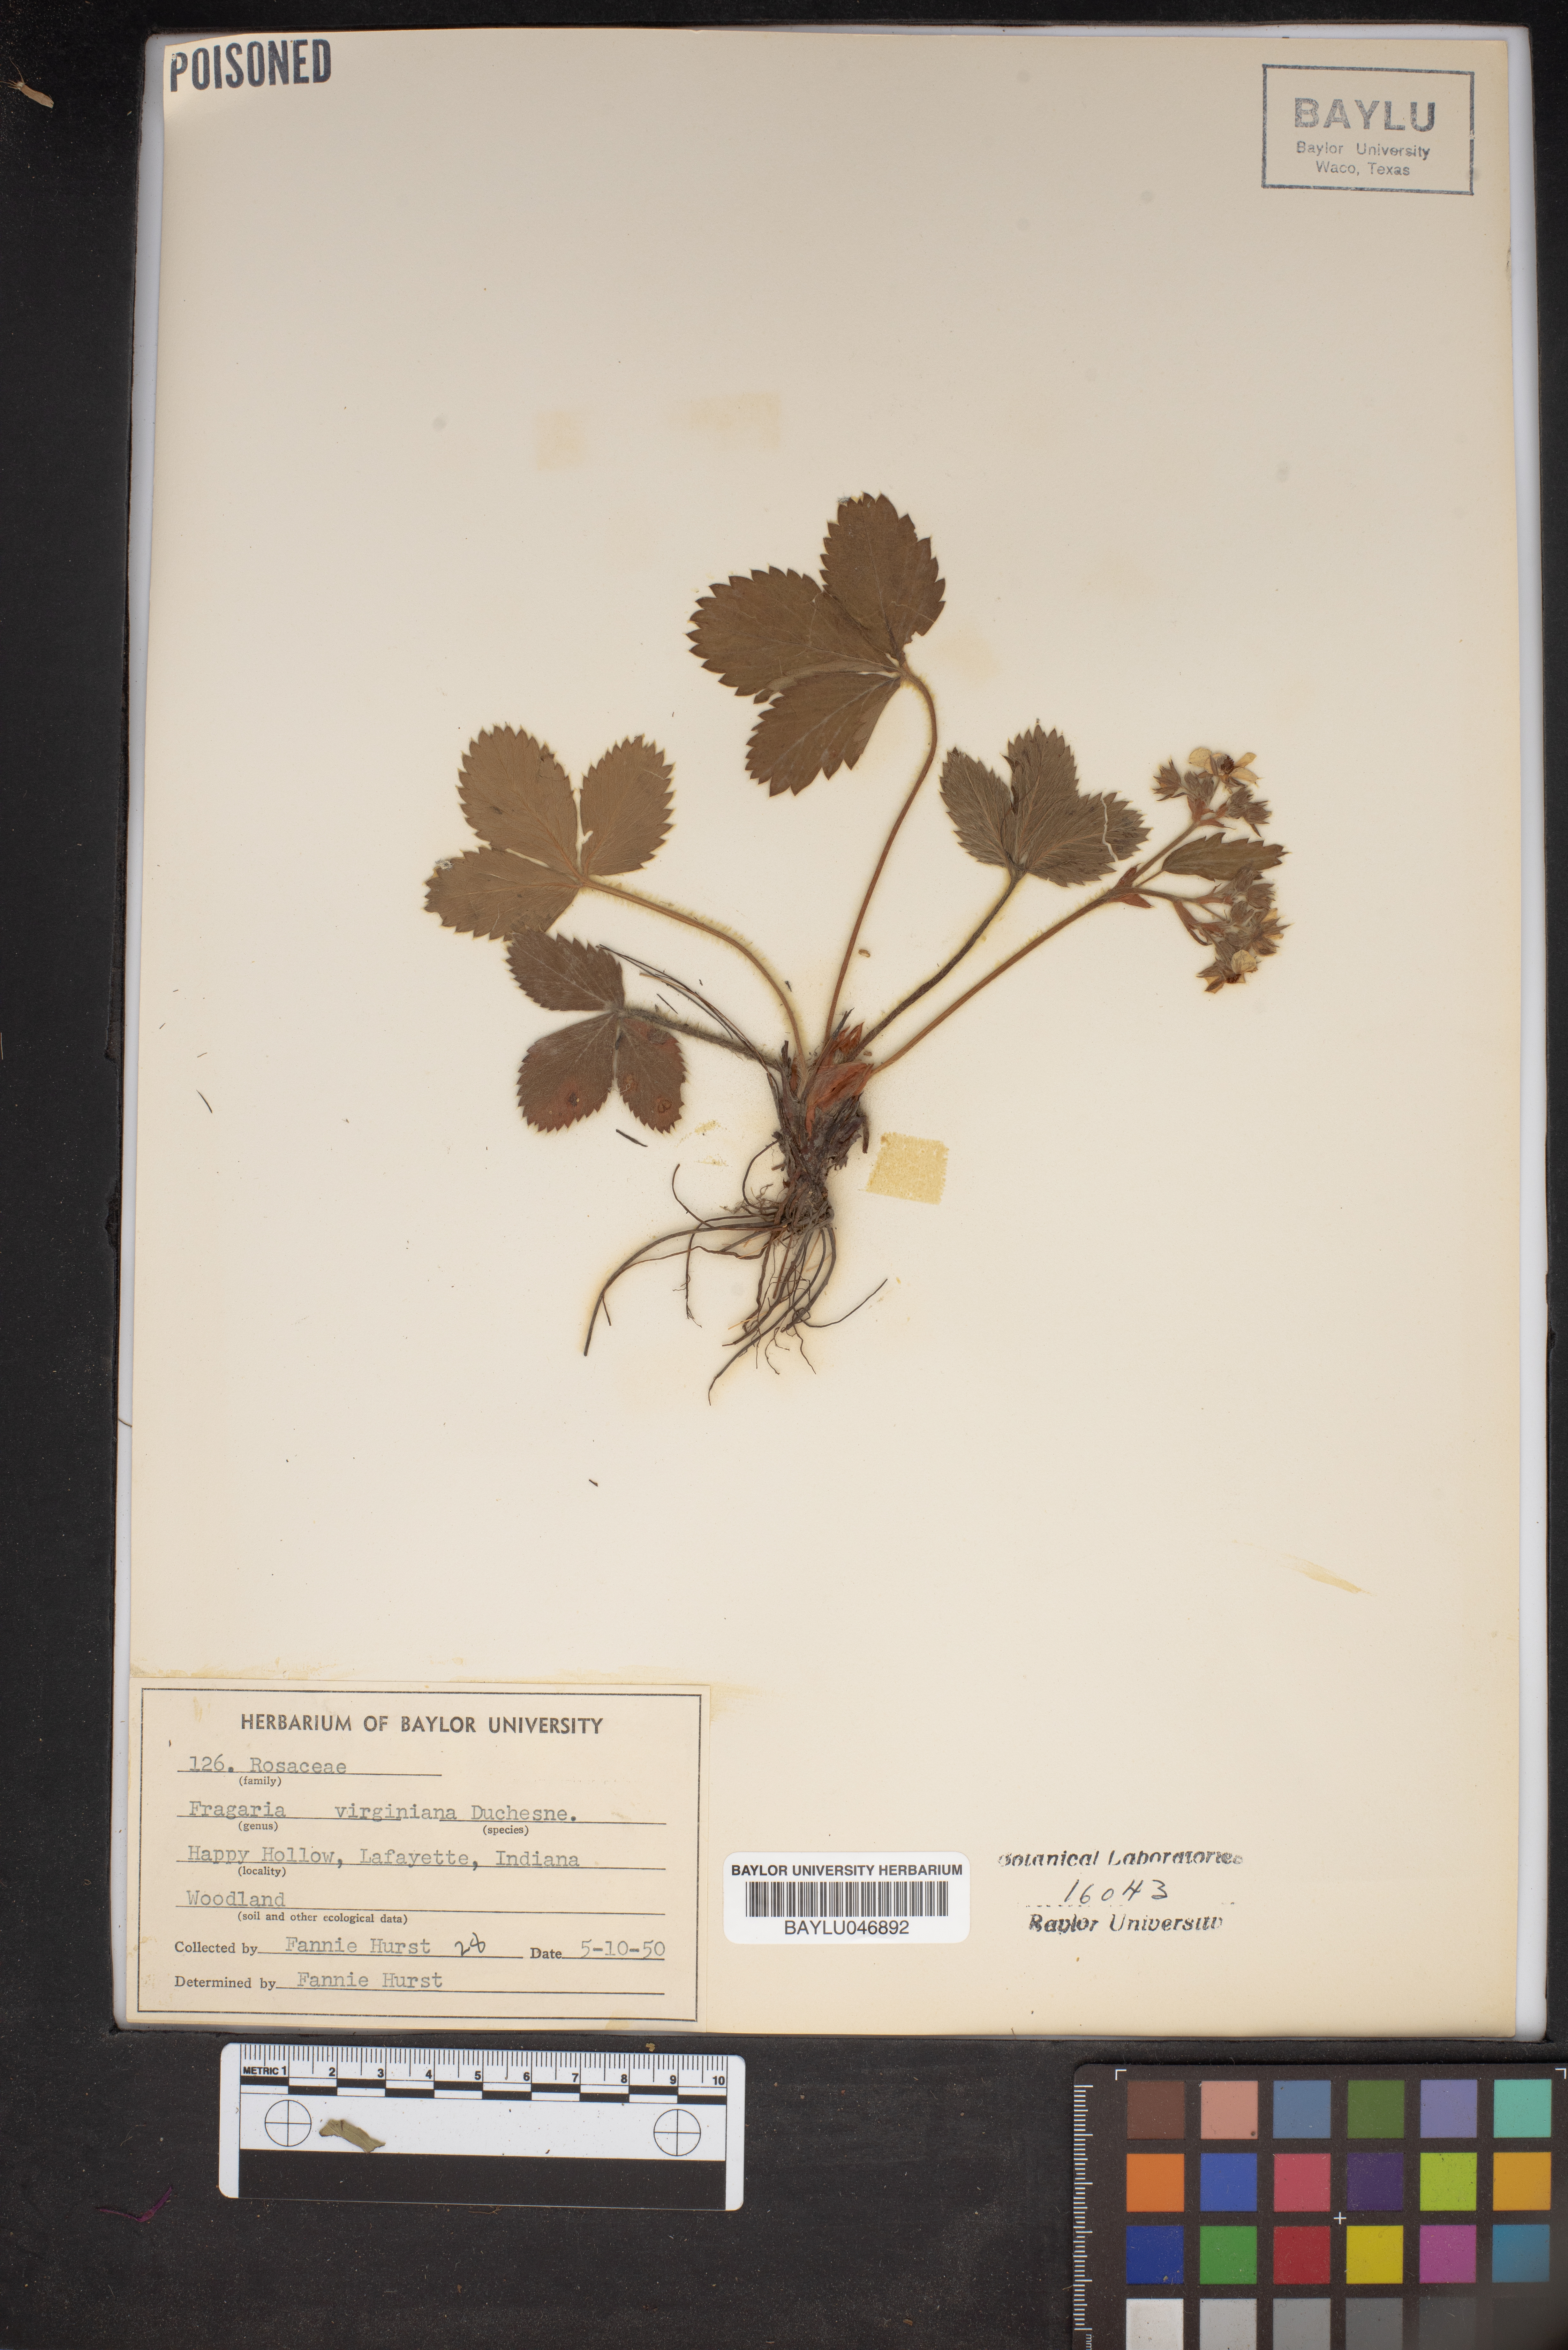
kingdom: Plantae
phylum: Tracheophyta
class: Magnoliopsida
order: Rosales
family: Rosaceae
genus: Fragaria
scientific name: Fragaria virginiana
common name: Thickleaved wild strawberry
